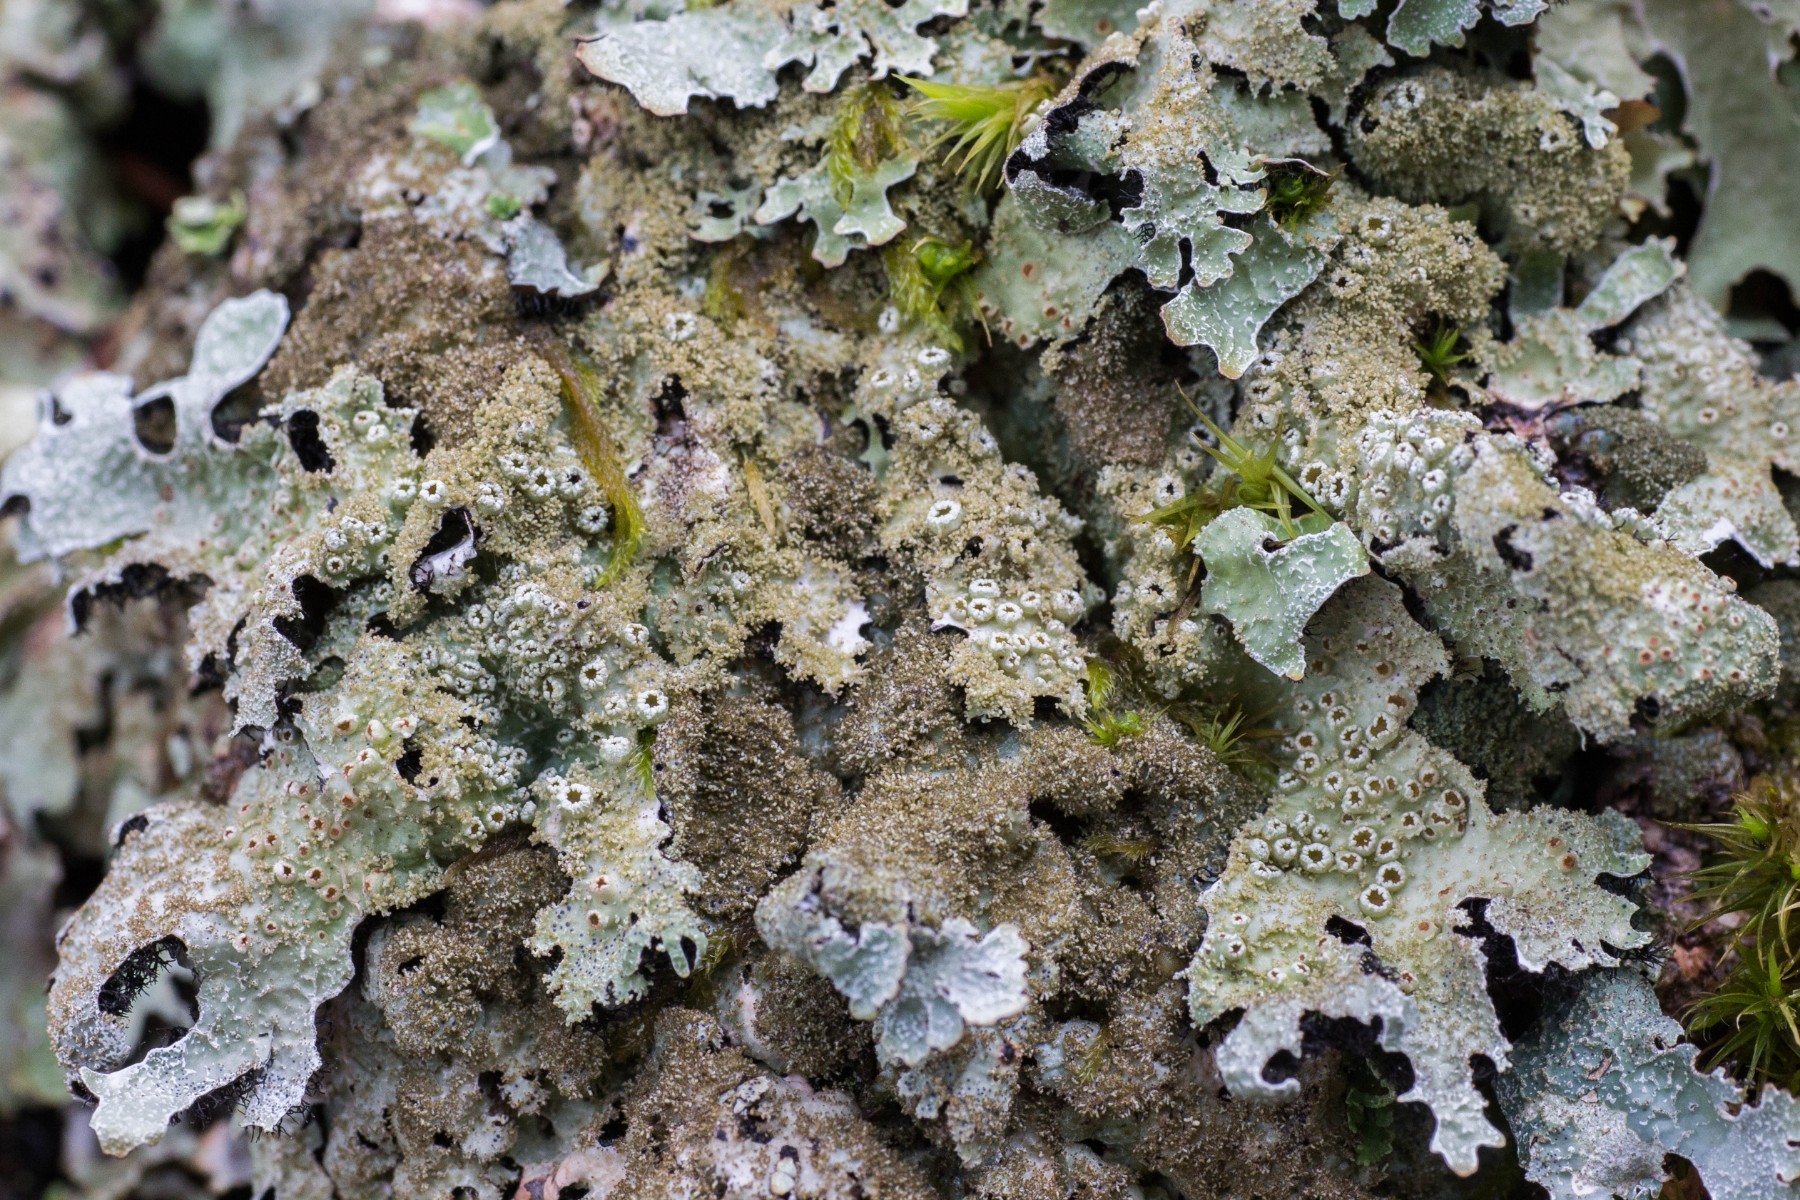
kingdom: Fungi
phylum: Ascomycota
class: Lecanoromycetes
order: Lecanorales
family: Parmeliaceae
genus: Parmelia
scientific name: Parmelia saxatilis
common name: farve-skållav
